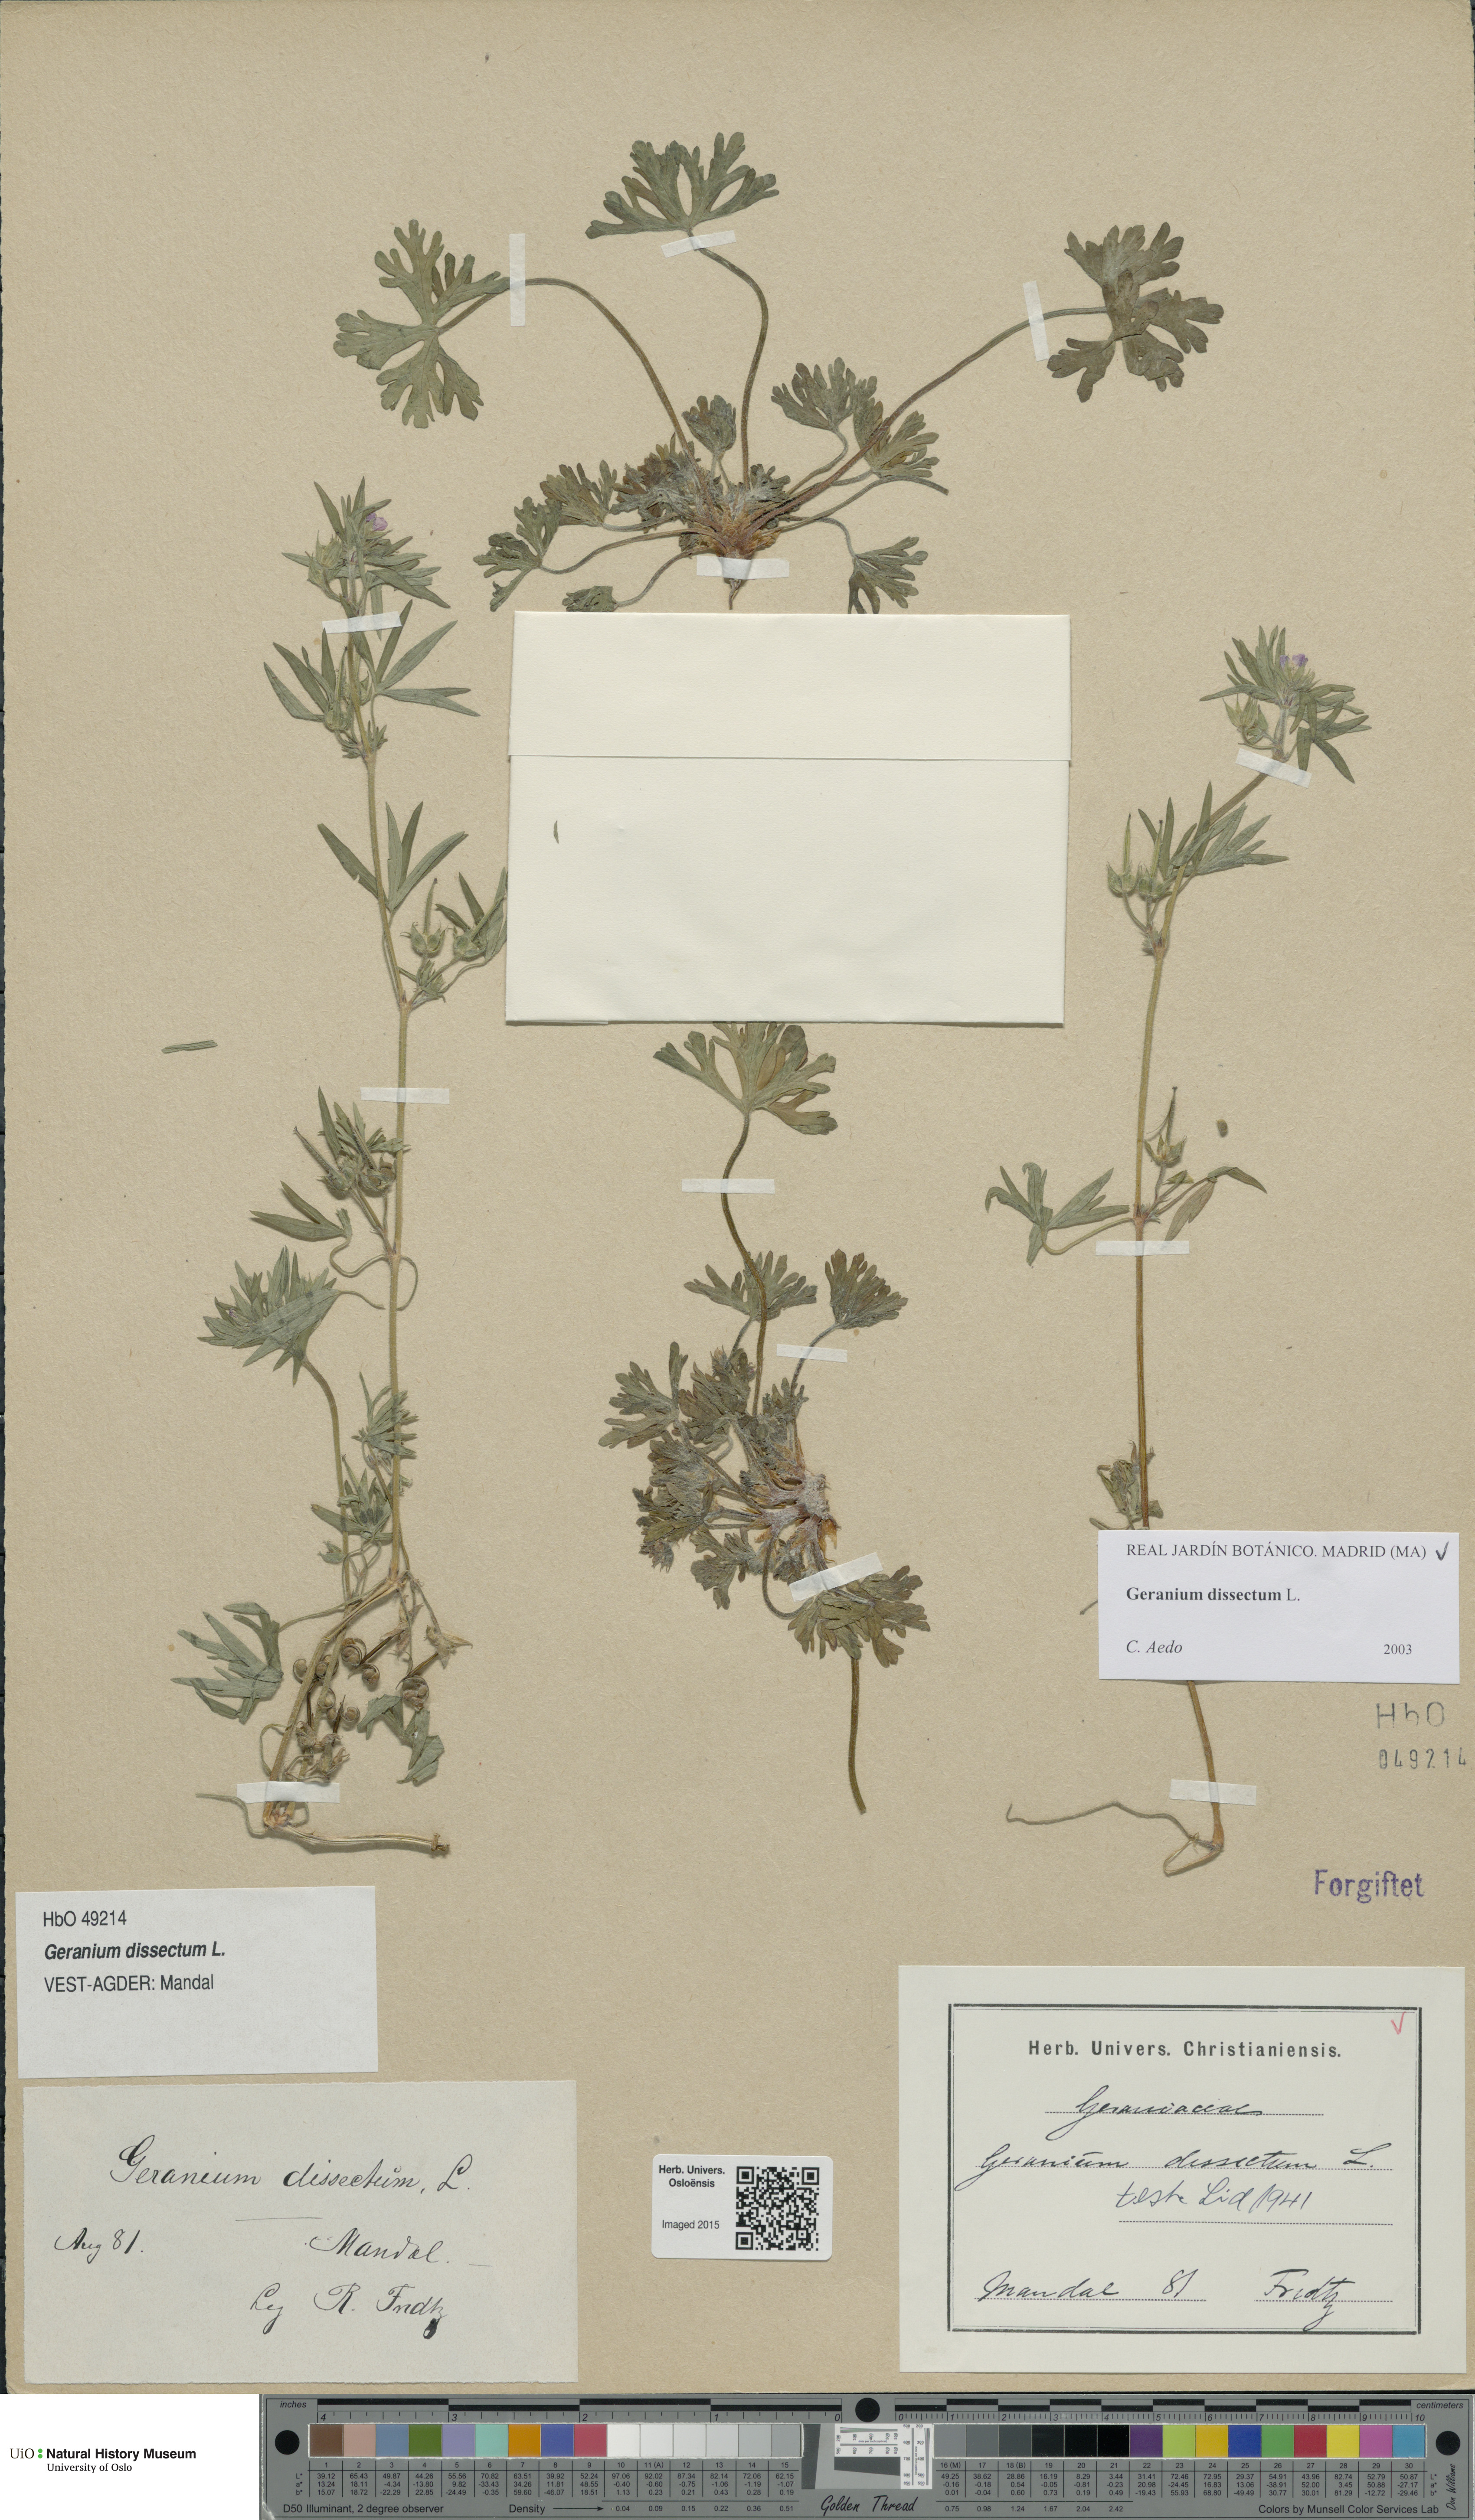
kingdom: Plantae
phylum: Tracheophyta
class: Magnoliopsida
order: Geraniales
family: Geraniaceae
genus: Geranium
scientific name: Geranium dissectum
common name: Cut-leaved crane's-bill
